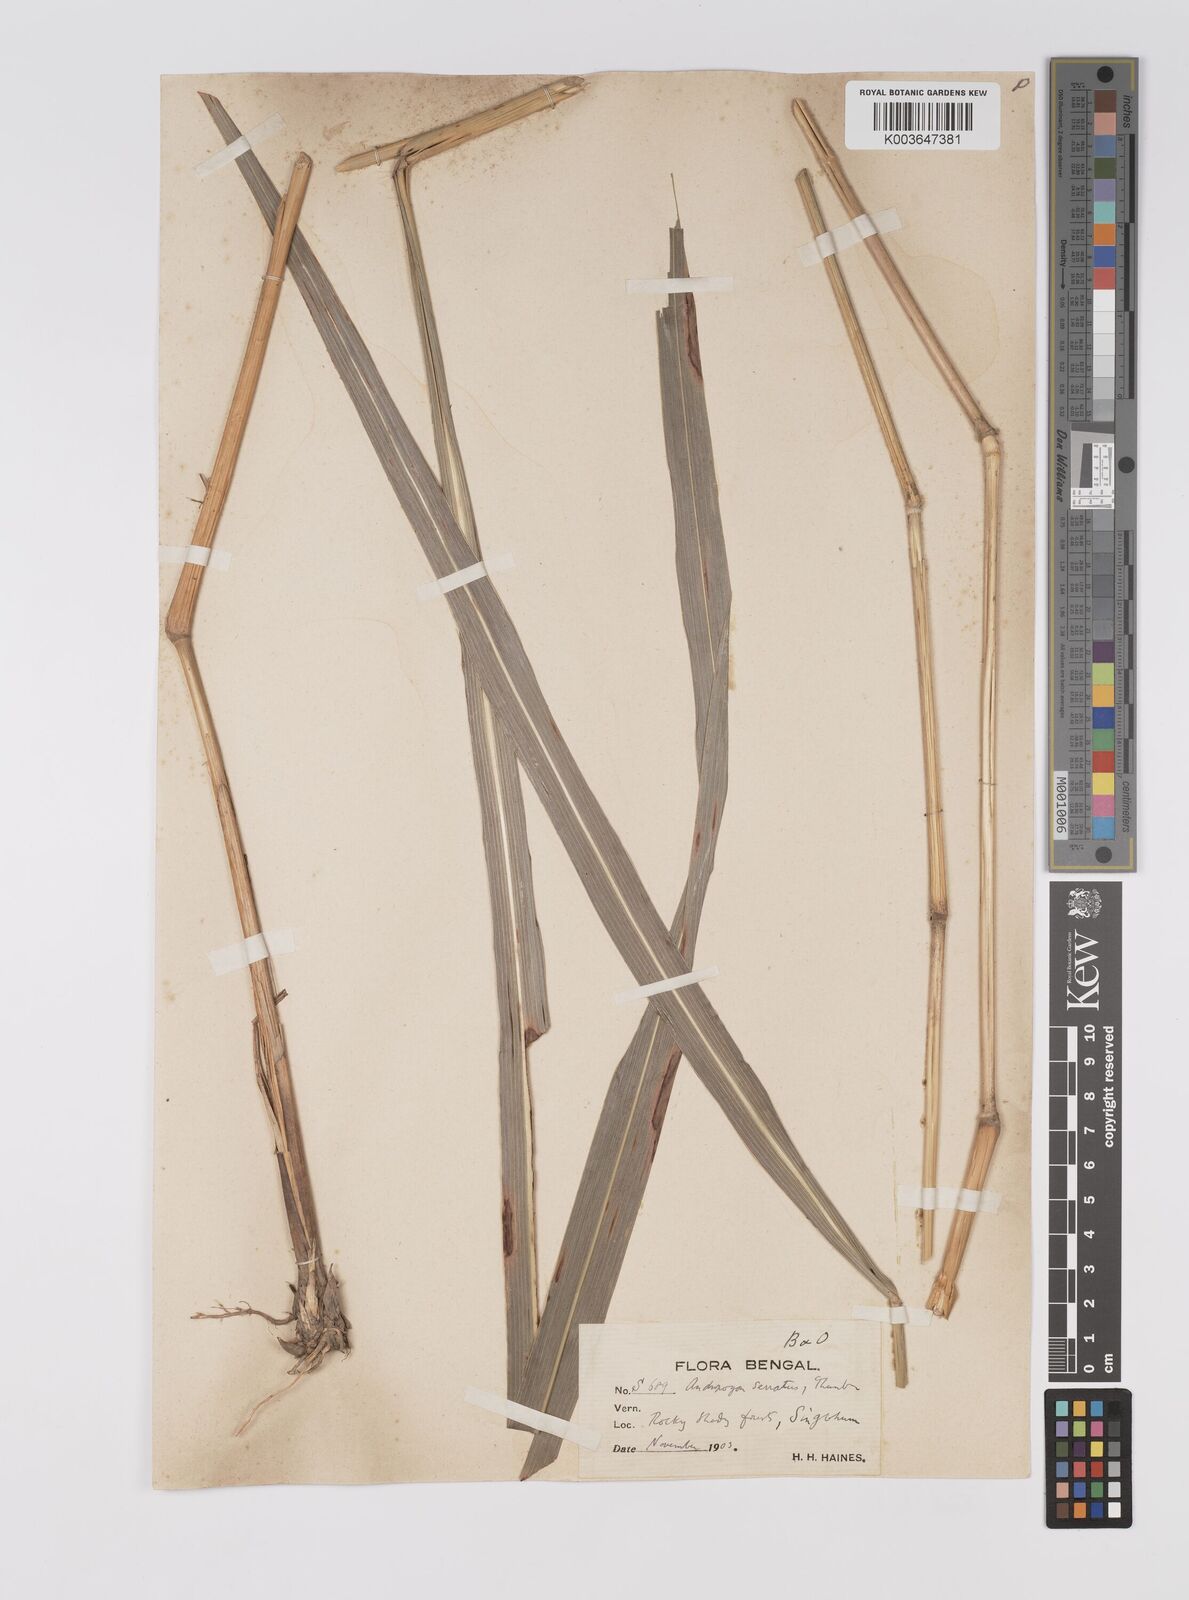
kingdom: Plantae
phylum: Tracheophyta
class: Liliopsida
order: Poales
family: Poaceae
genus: Sorghum
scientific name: Sorghum nitidum
